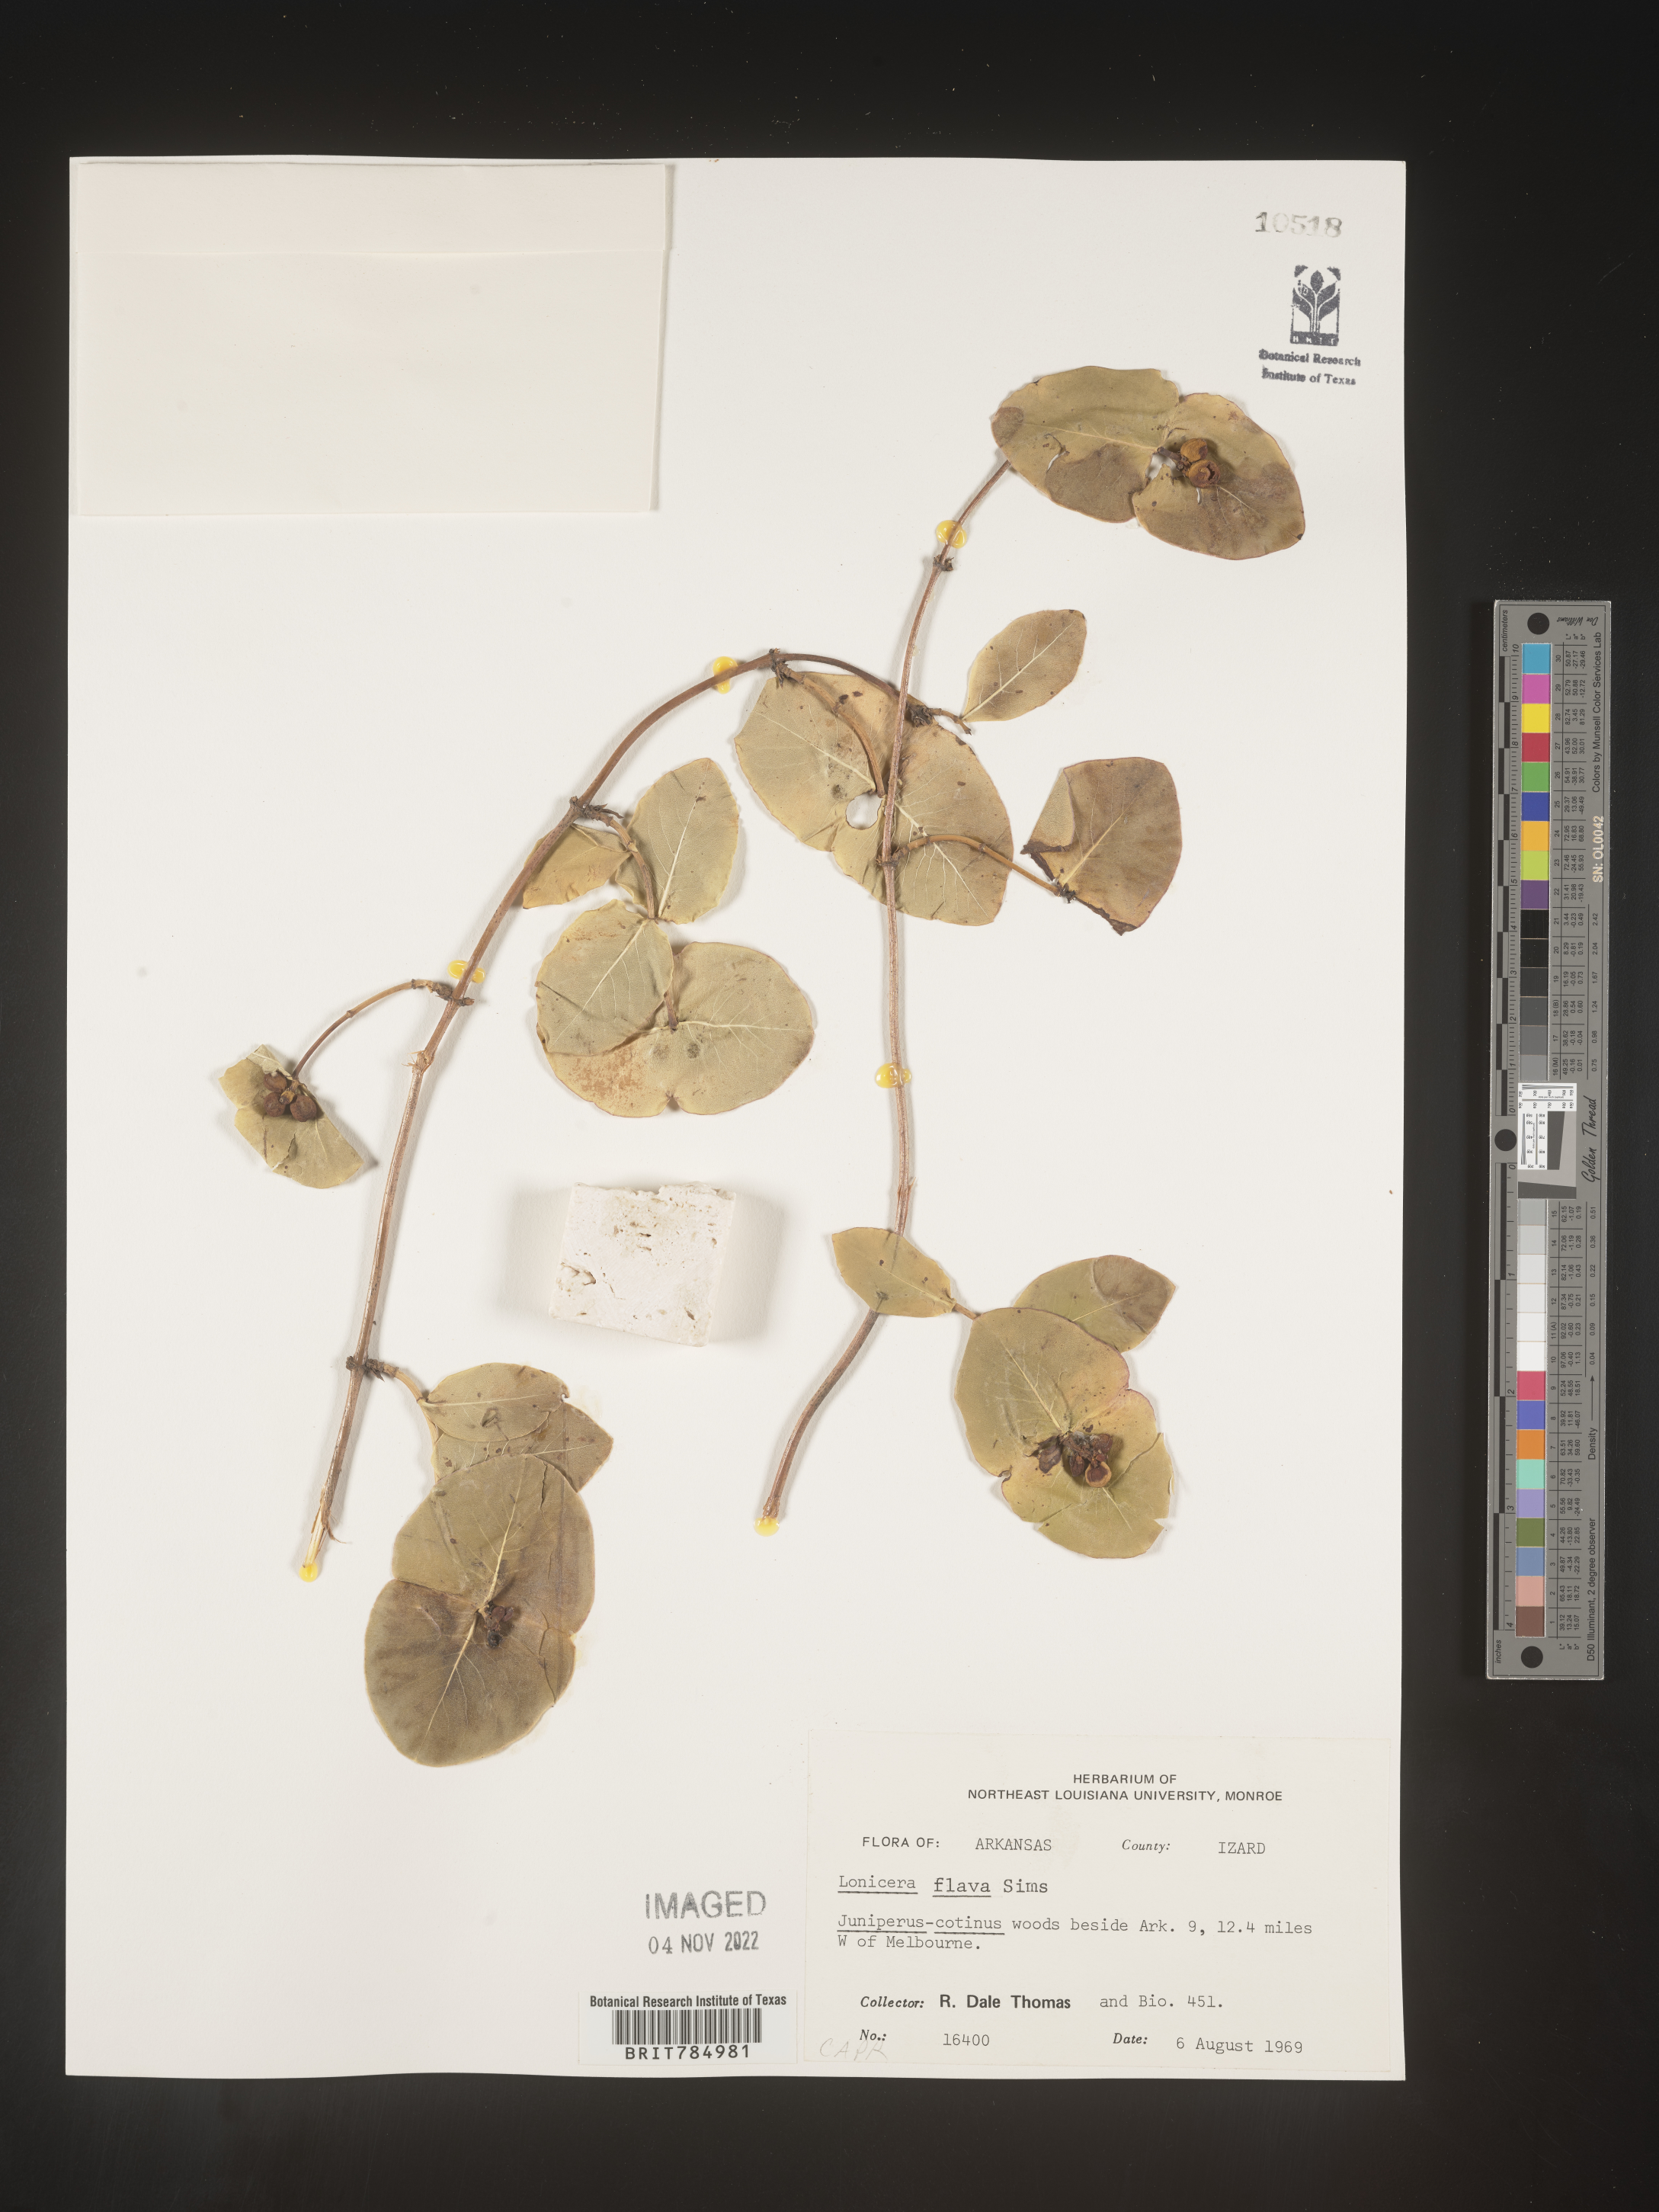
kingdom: Plantae
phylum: Tracheophyta
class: Magnoliopsida
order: Dipsacales
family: Caprifoliaceae
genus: Lonicera
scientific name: Lonicera flava
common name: Yellow honeysuckle
